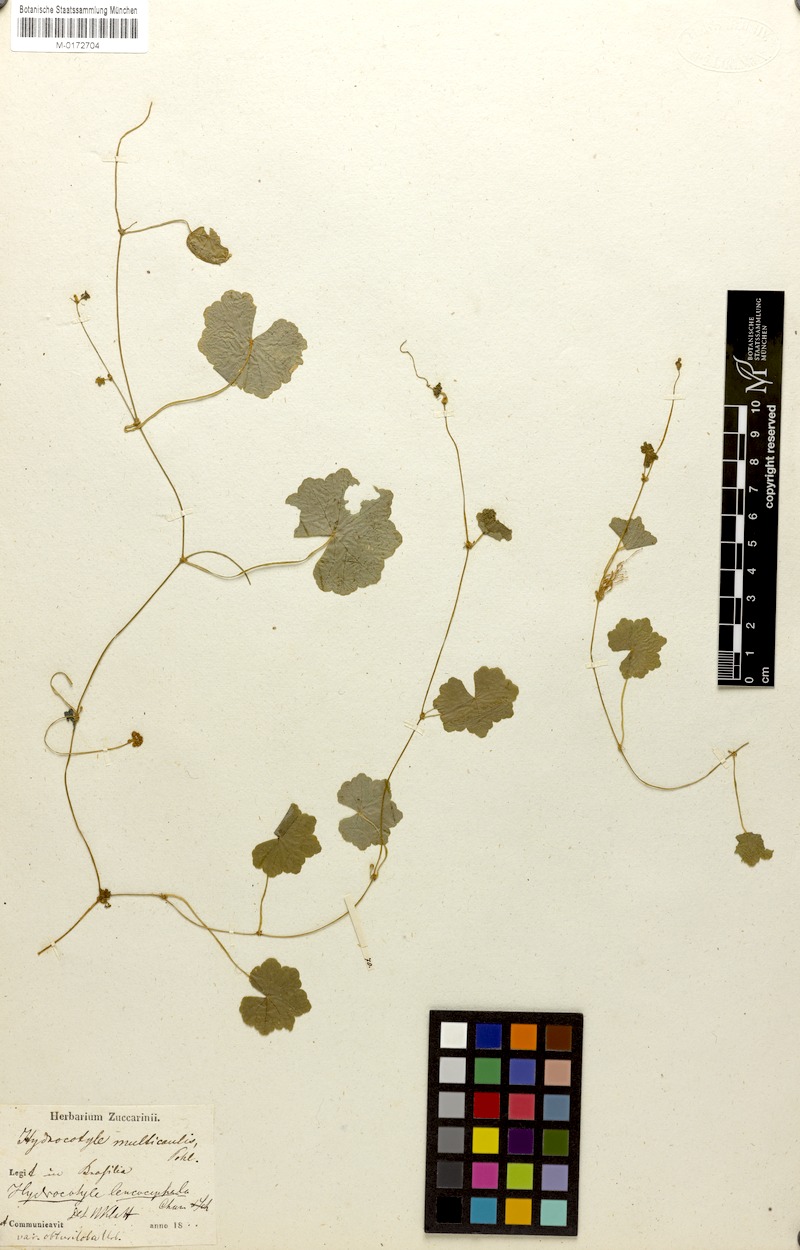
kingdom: Plantae
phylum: Tracheophyta
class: Magnoliopsida
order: Apiales
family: Araliaceae
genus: Hydrocotyle
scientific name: Hydrocotyle leucocephala
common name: Brazilian pennywort
